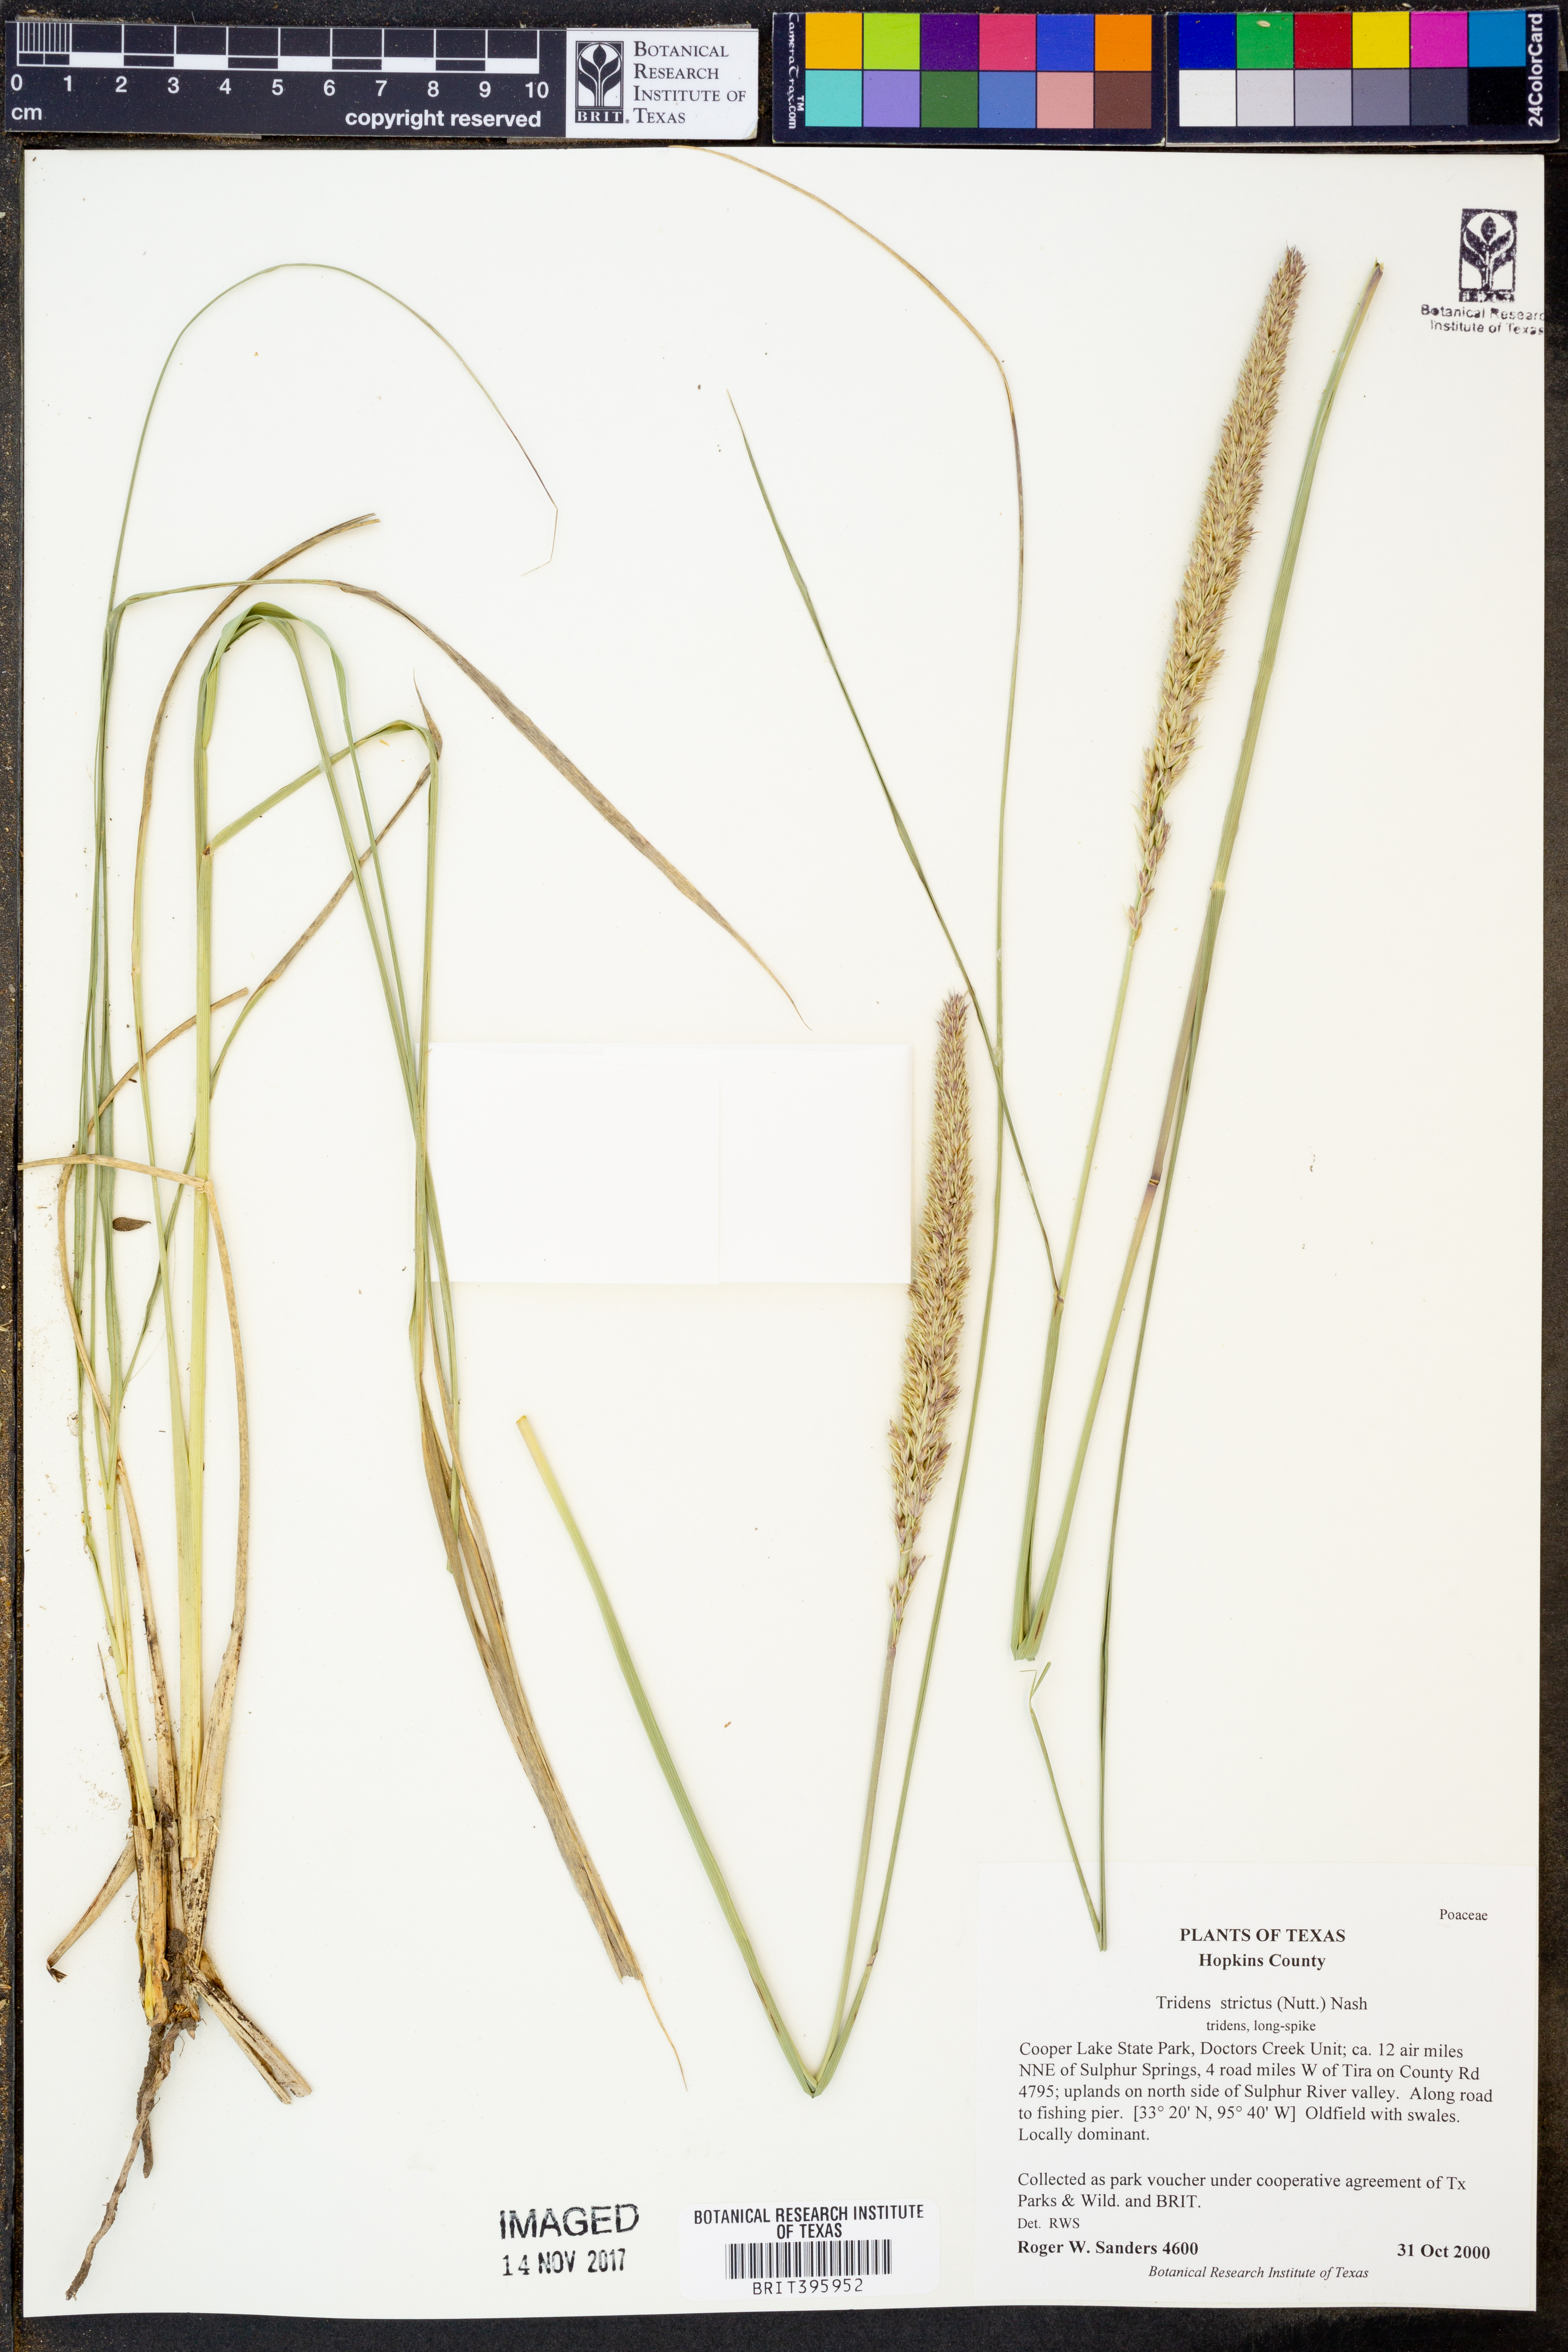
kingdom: Plantae
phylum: Tracheophyta
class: Liliopsida
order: Poales
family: Poaceae
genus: Tridens
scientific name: Tridens strictus
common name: Long-spike tridens
